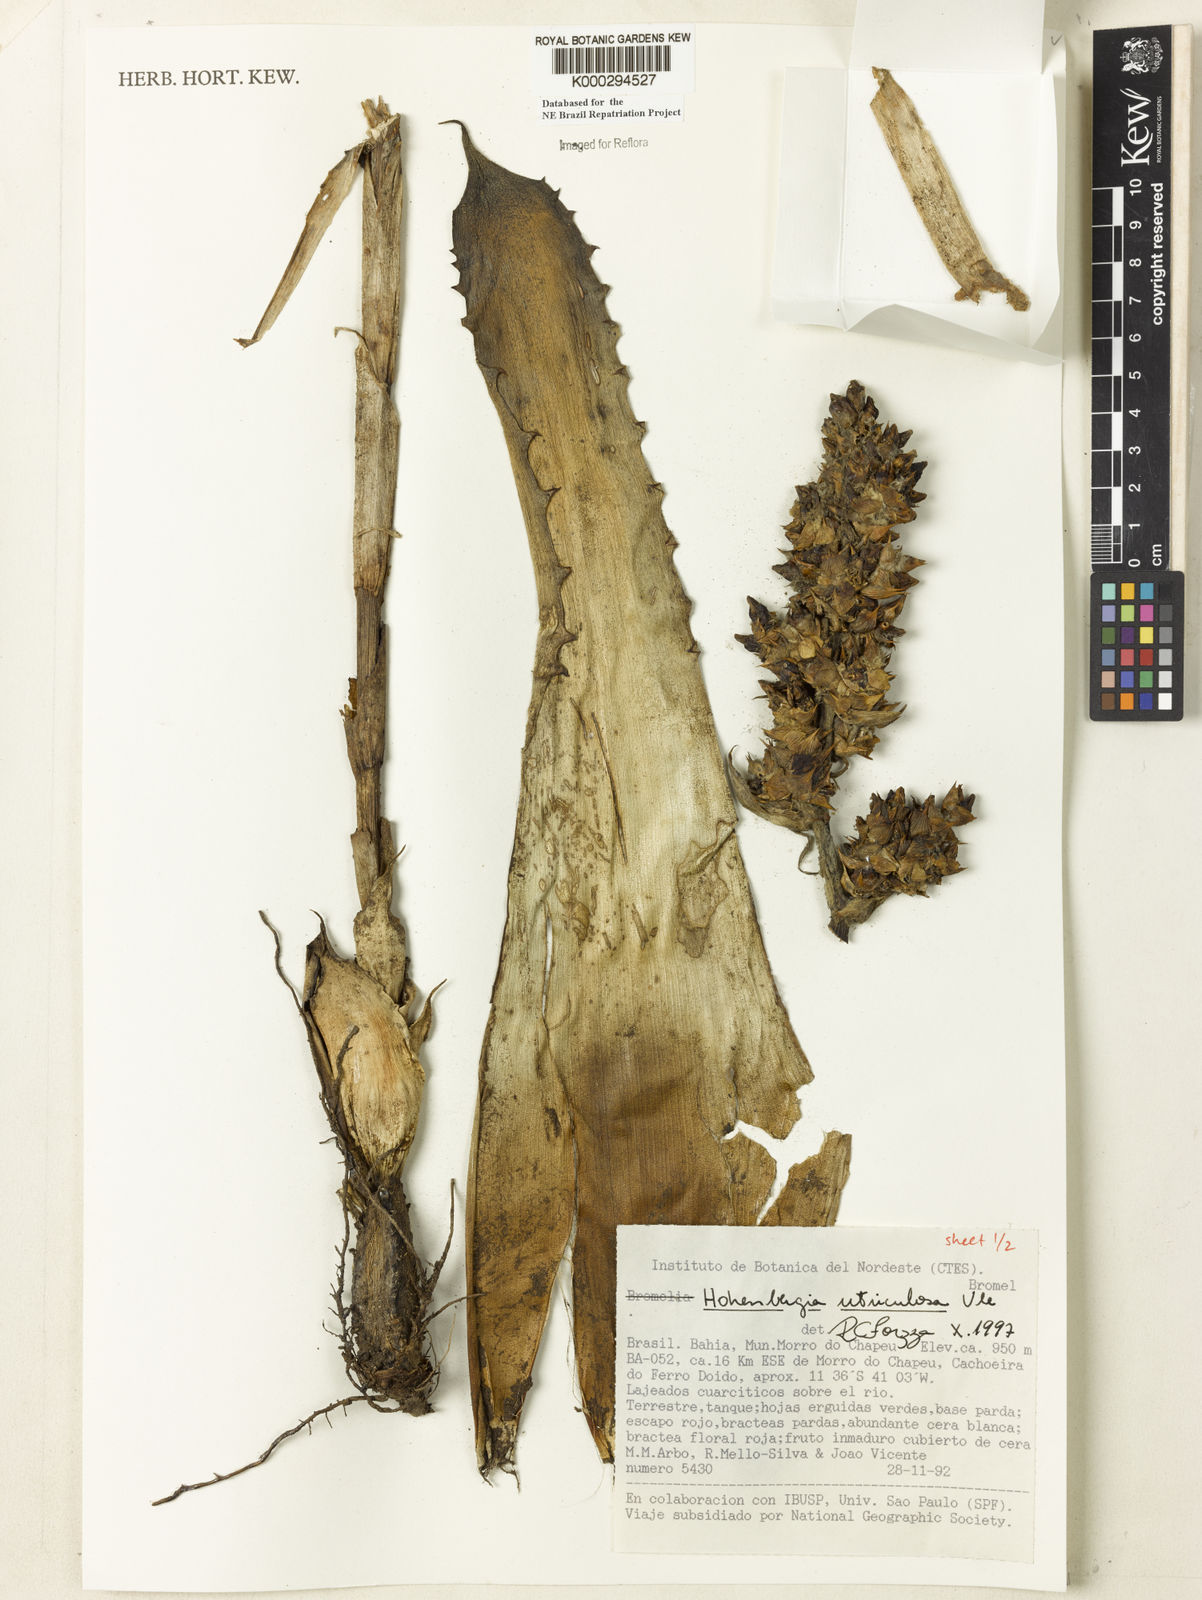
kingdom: Plantae
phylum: Tracheophyta
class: Liliopsida
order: Poales
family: Bromeliaceae
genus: Hohenbergia
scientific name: Hohenbergia utriculosa
